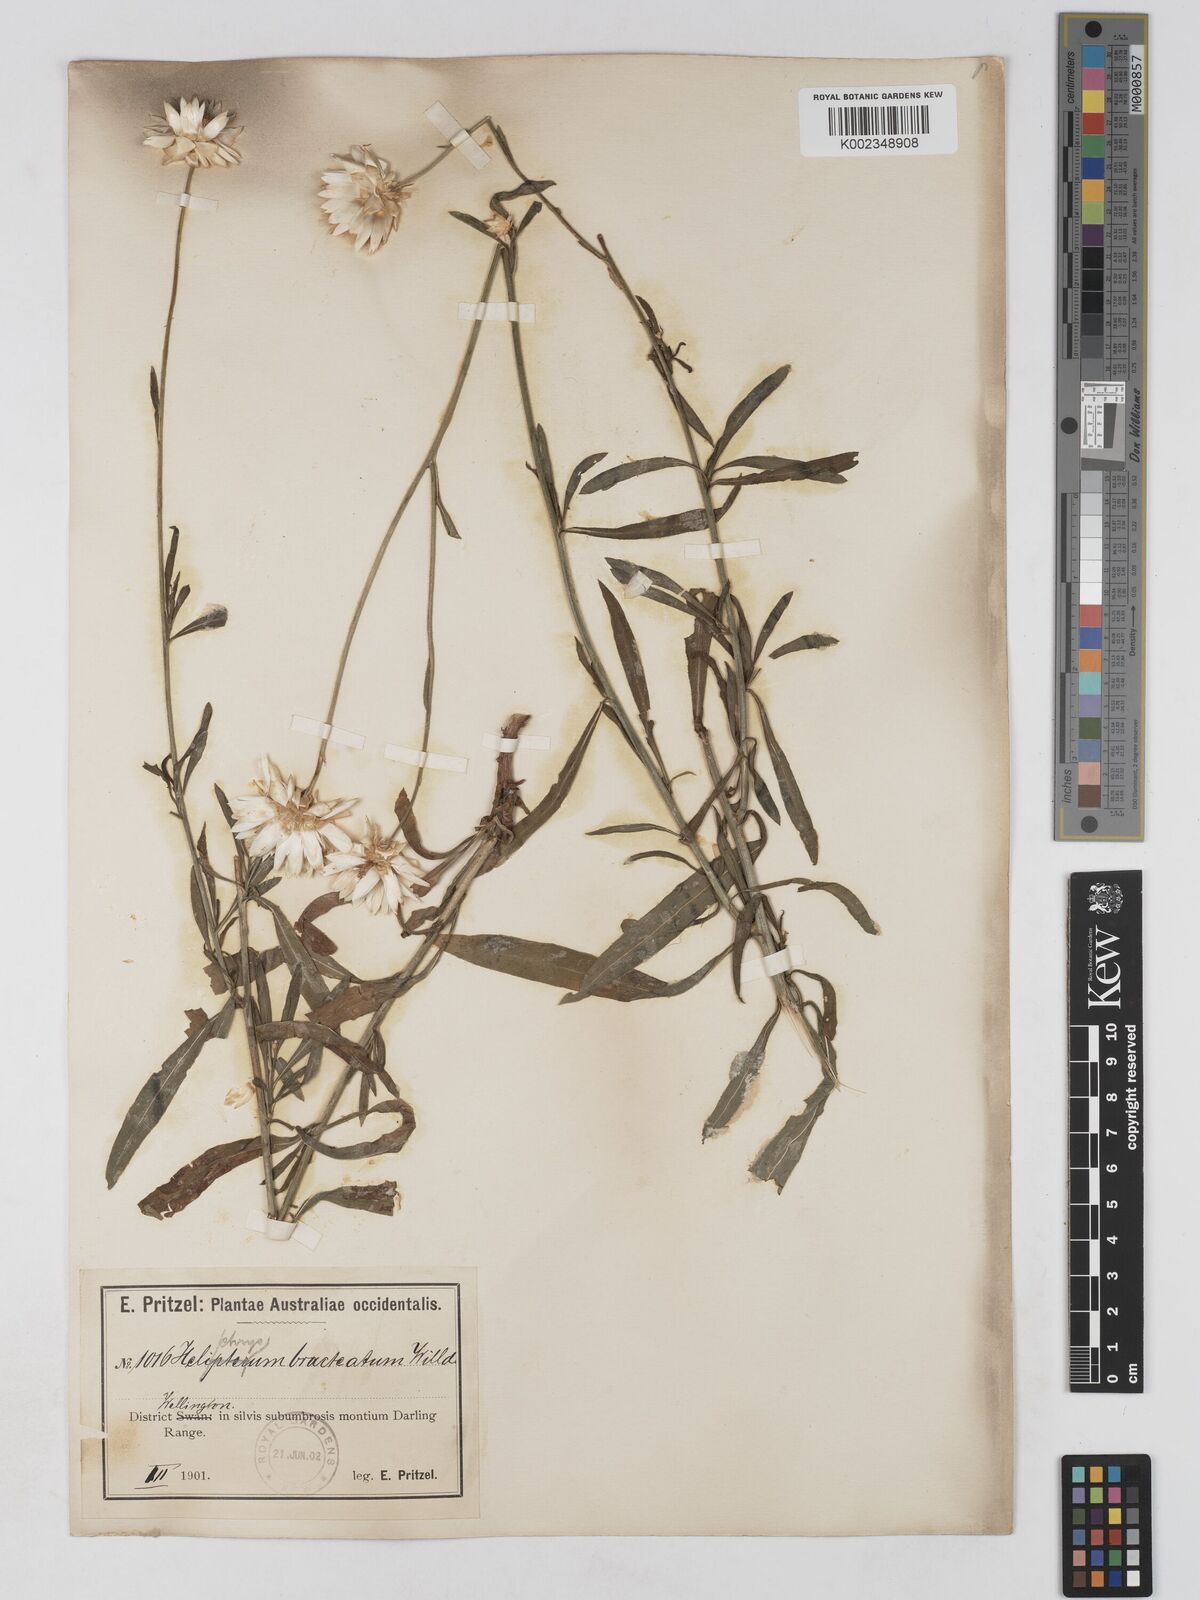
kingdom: Plantae
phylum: Tracheophyta
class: Magnoliopsida
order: Asterales
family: Asteraceae
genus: Xerochrysum
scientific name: Xerochrysum bracteatum
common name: Bracted strawflower
